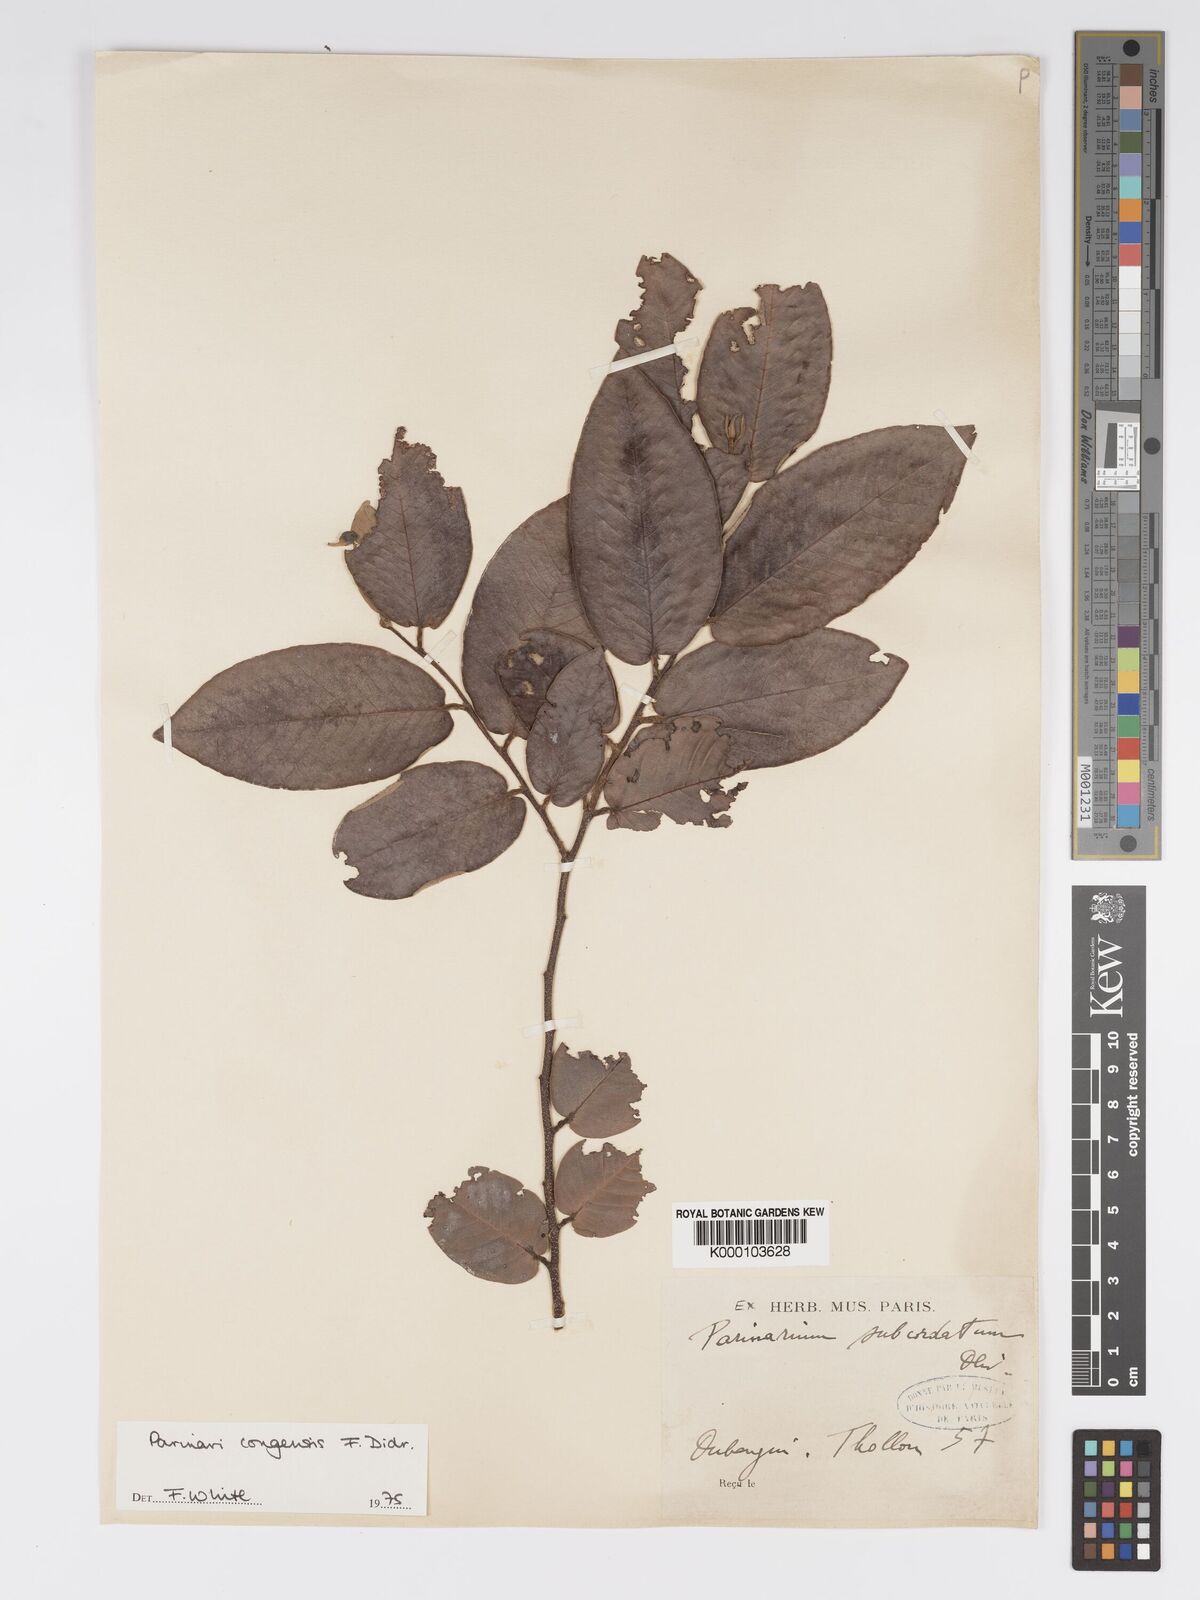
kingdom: Plantae
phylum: Tracheophyta
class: Magnoliopsida
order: Malpighiales
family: Chrysobalanaceae
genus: Parinari
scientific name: Parinari congensis
